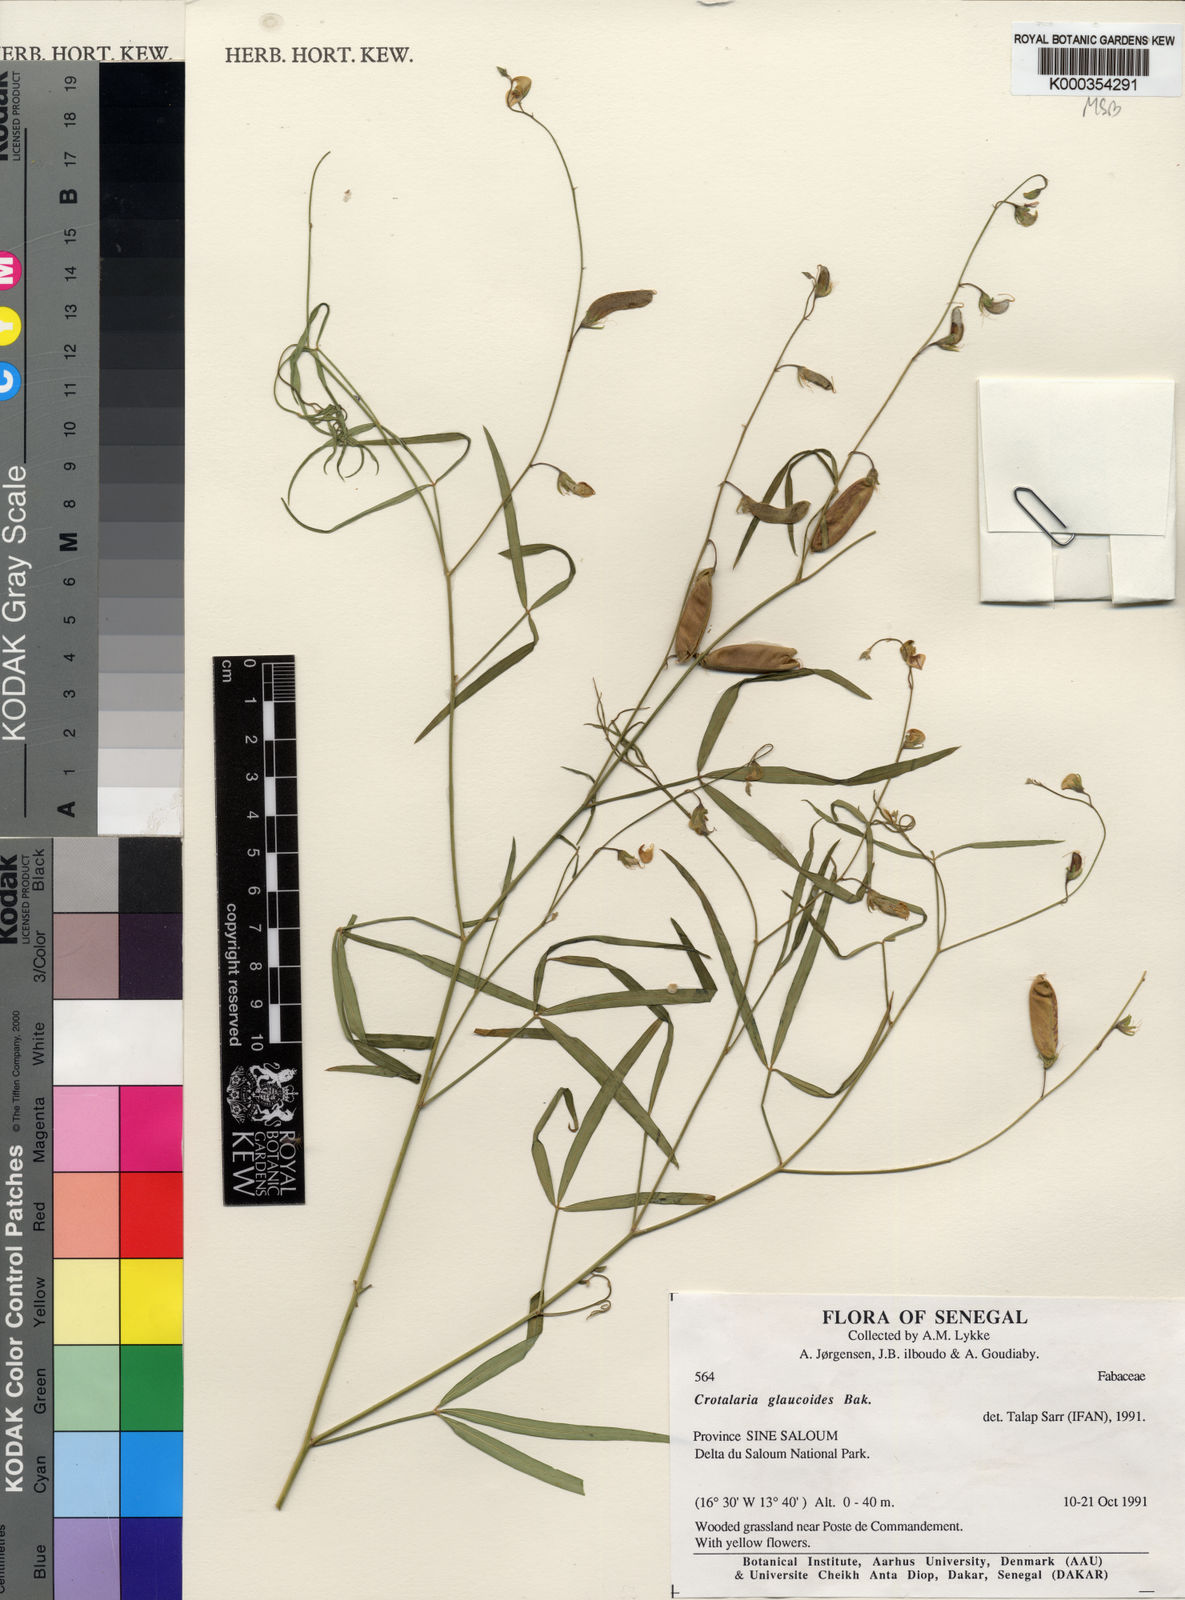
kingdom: Plantae
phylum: Tracheophyta
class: Magnoliopsida
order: Fabales
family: Fabaceae
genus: Crotalaria
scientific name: Crotalaria glaucoides
